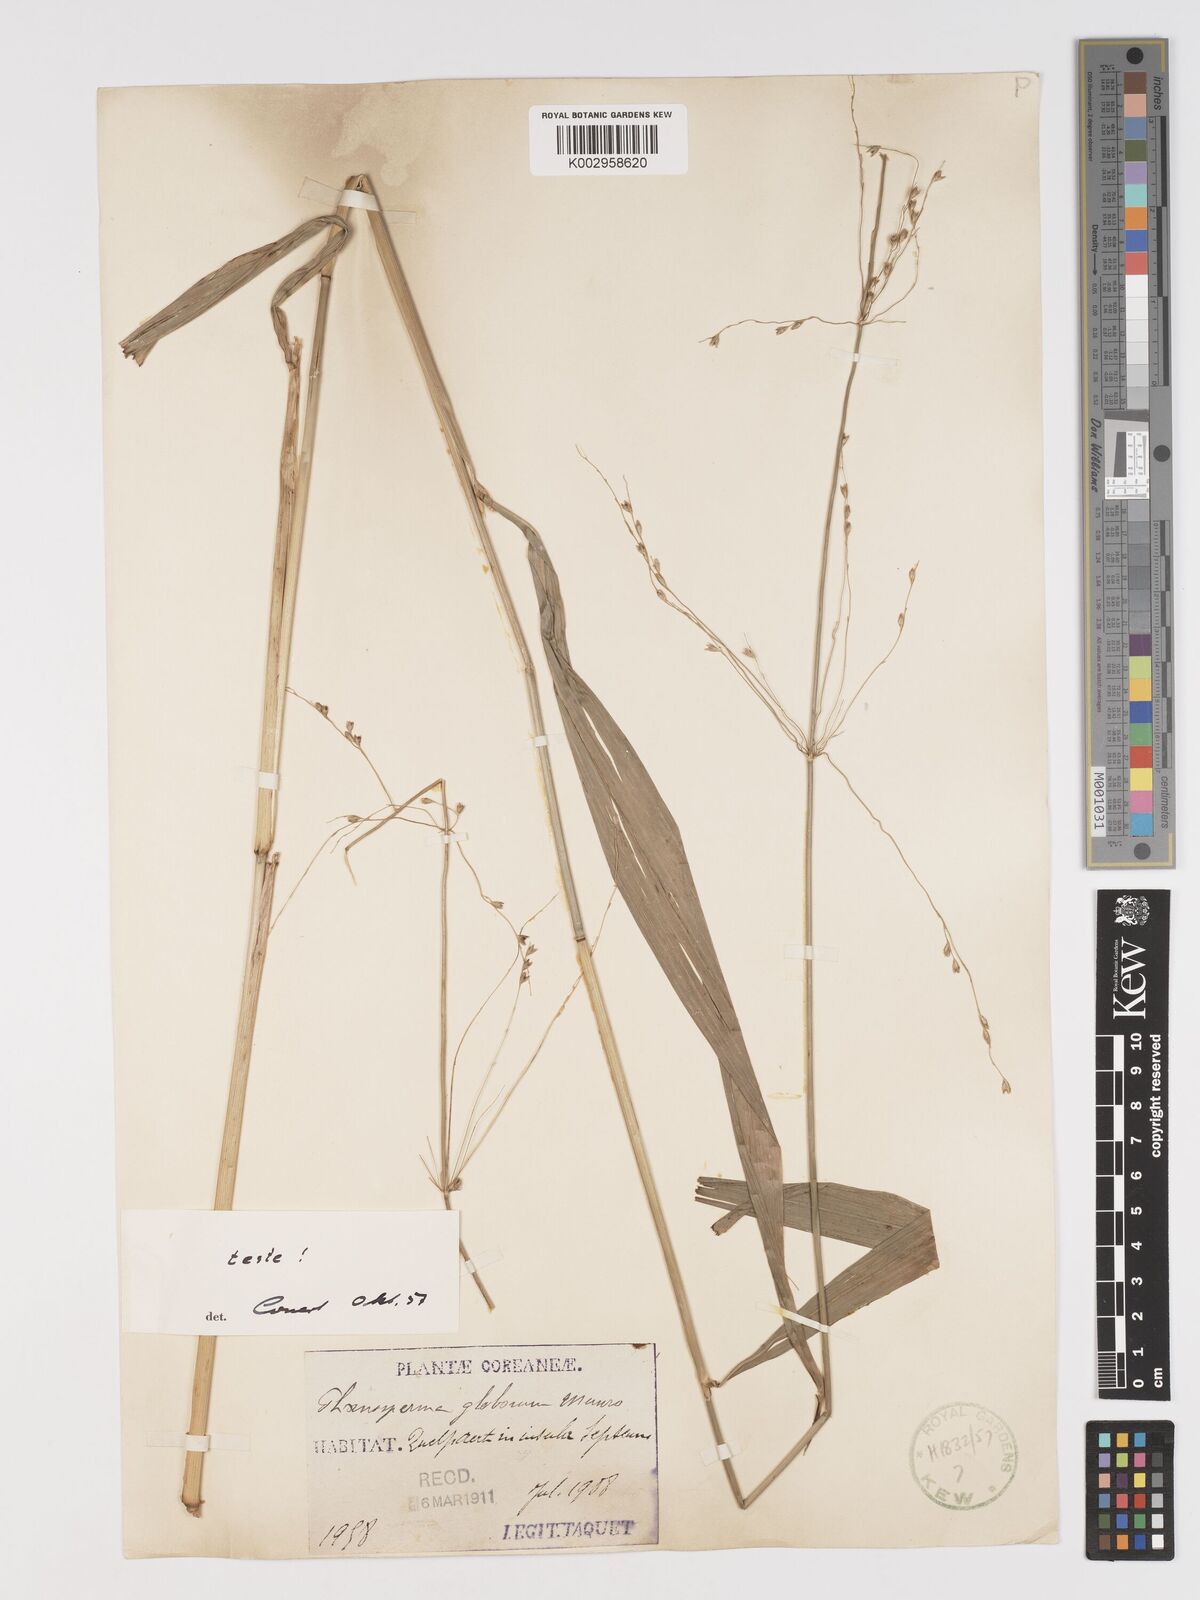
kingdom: Plantae
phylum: Tracheophyta
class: Liliopsida
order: Poales
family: Poaceae
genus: Phaenosperma
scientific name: Phaenosperma globosum
